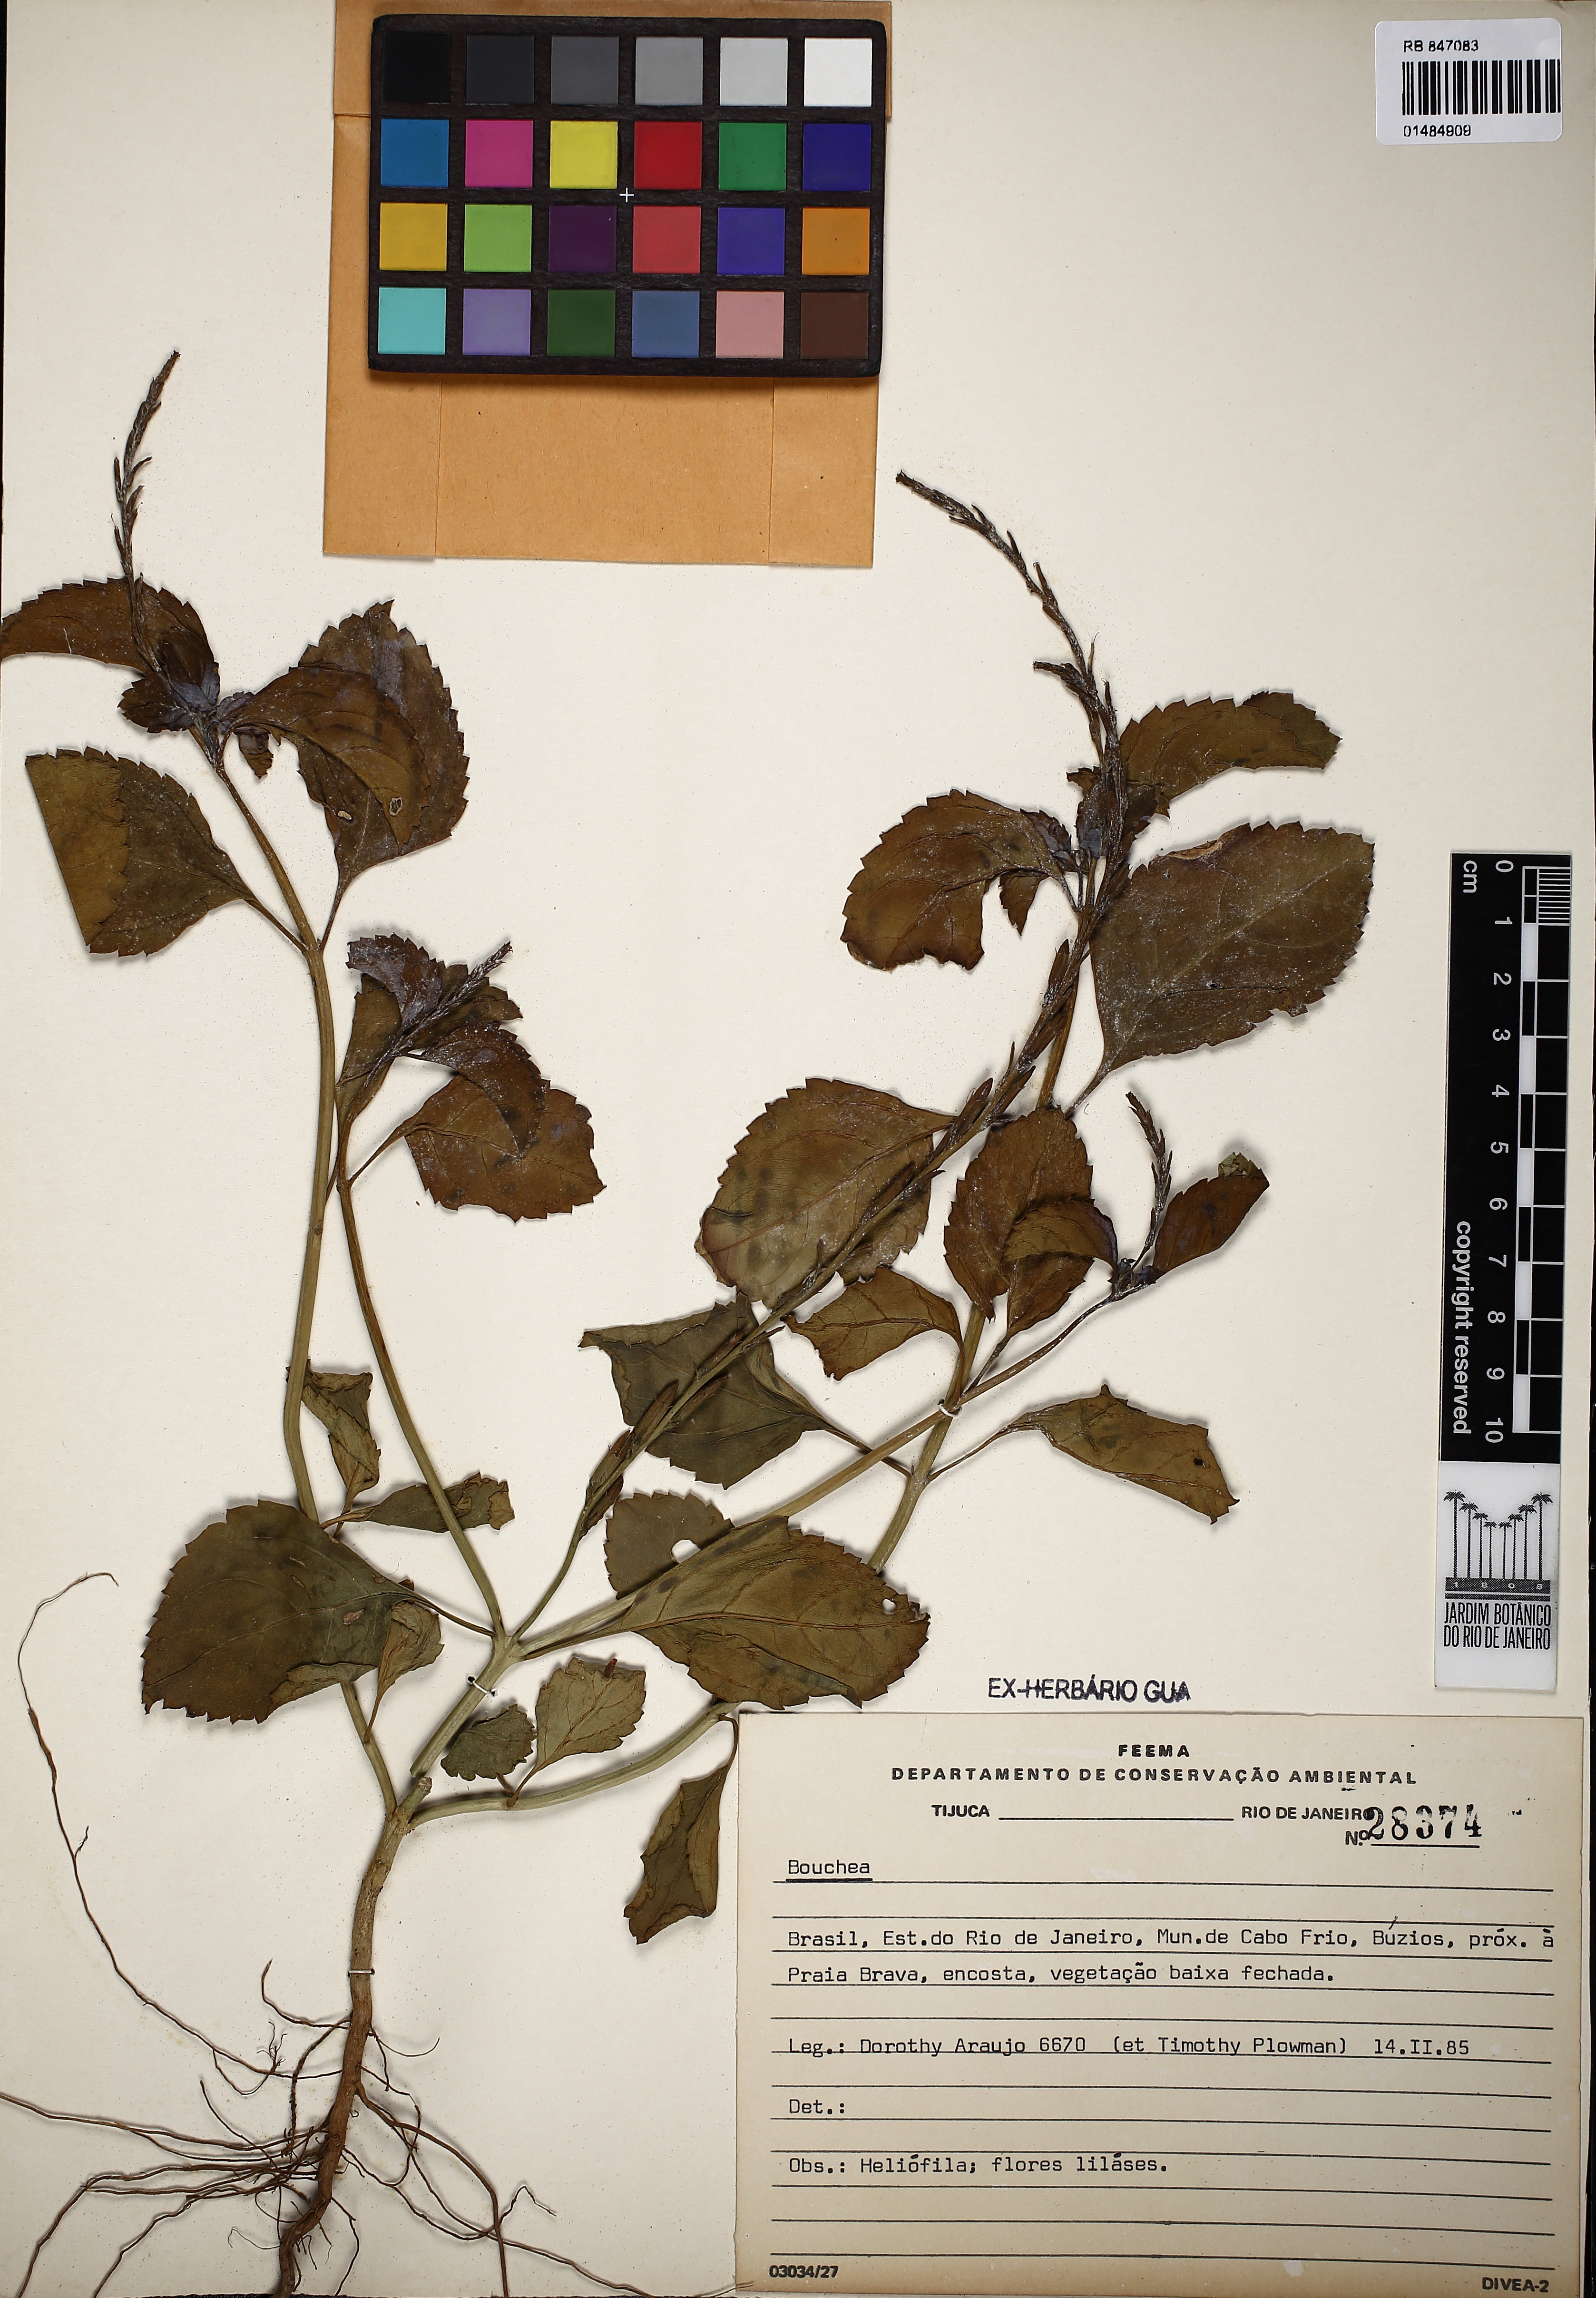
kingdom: Plantae
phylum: Tracheophyta
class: Magnoliopsida
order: Lamiales
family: Verbenaceae
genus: Bouchea
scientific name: Bouchea
